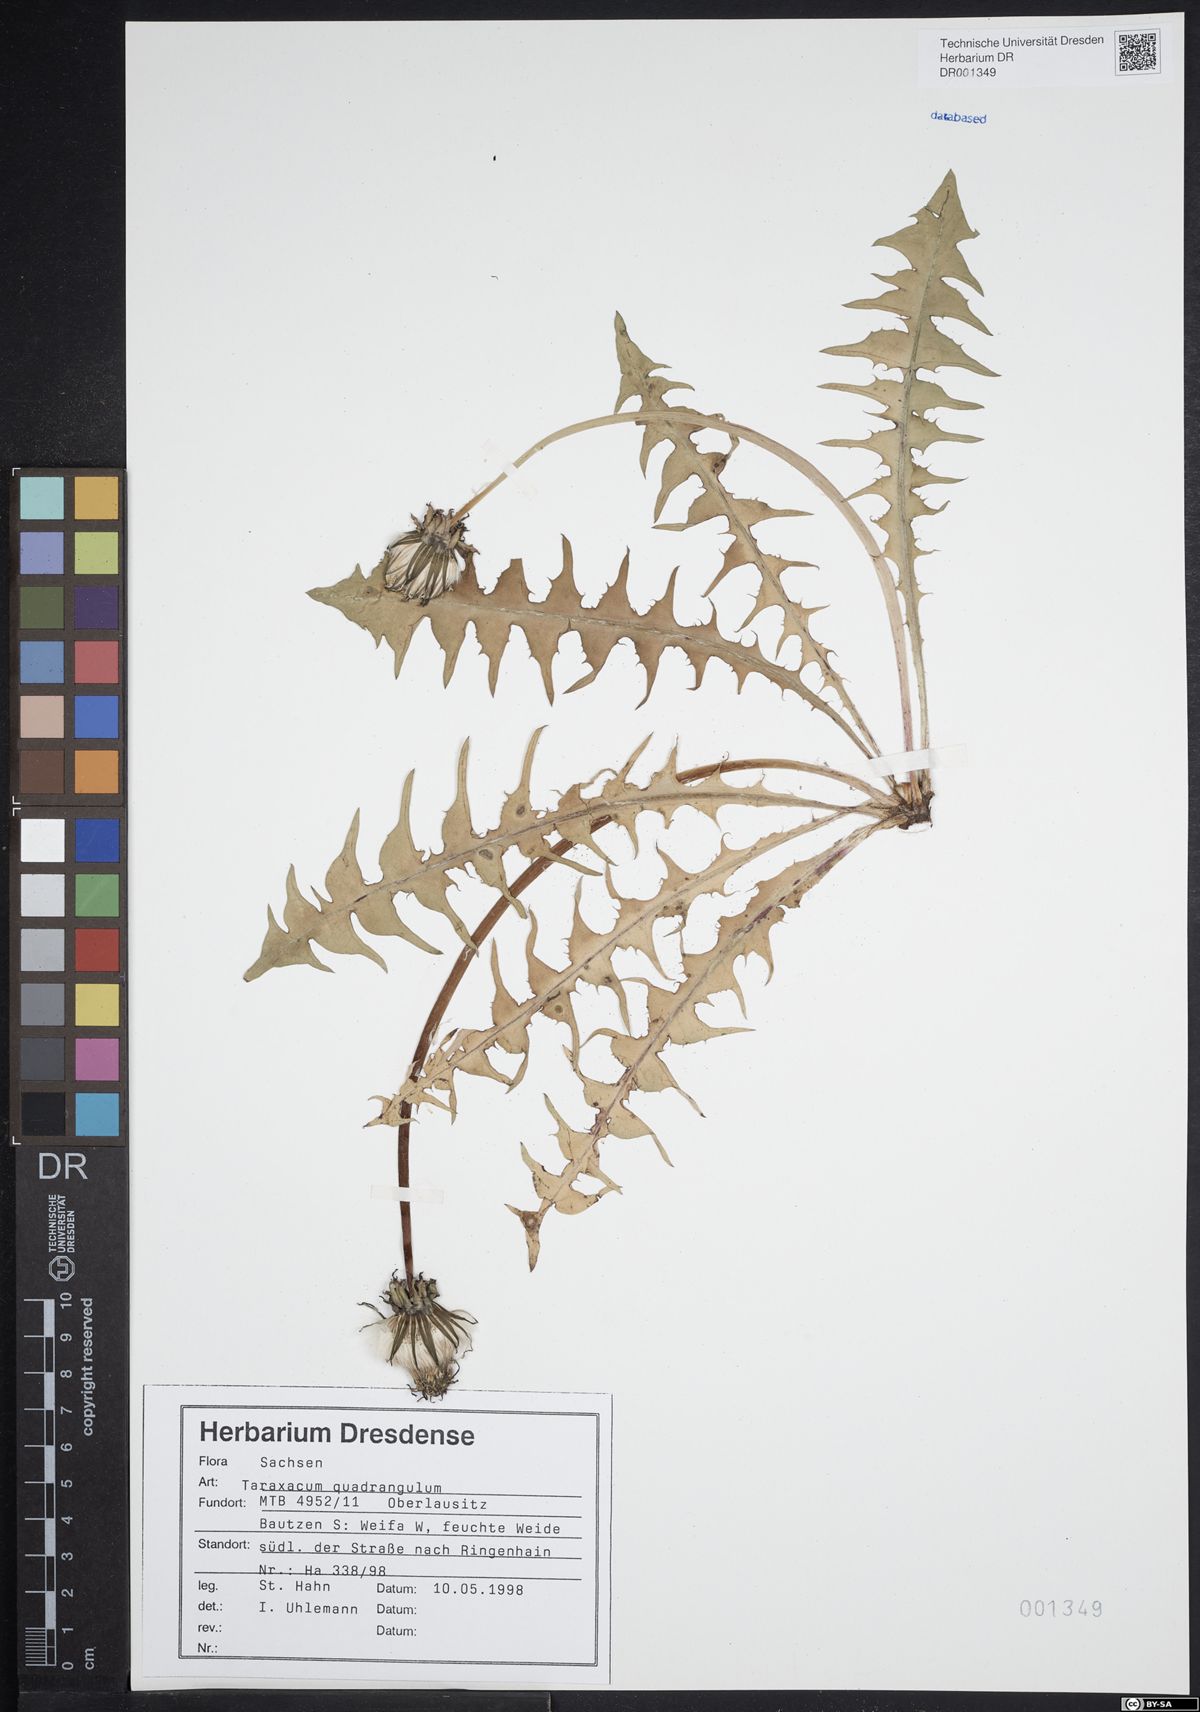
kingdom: Plantae
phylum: Tracheophyta
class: Magnoliopsida
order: Asterales
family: Asteraceae
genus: Taraxacum
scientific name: Taraxacum quadrangulum
